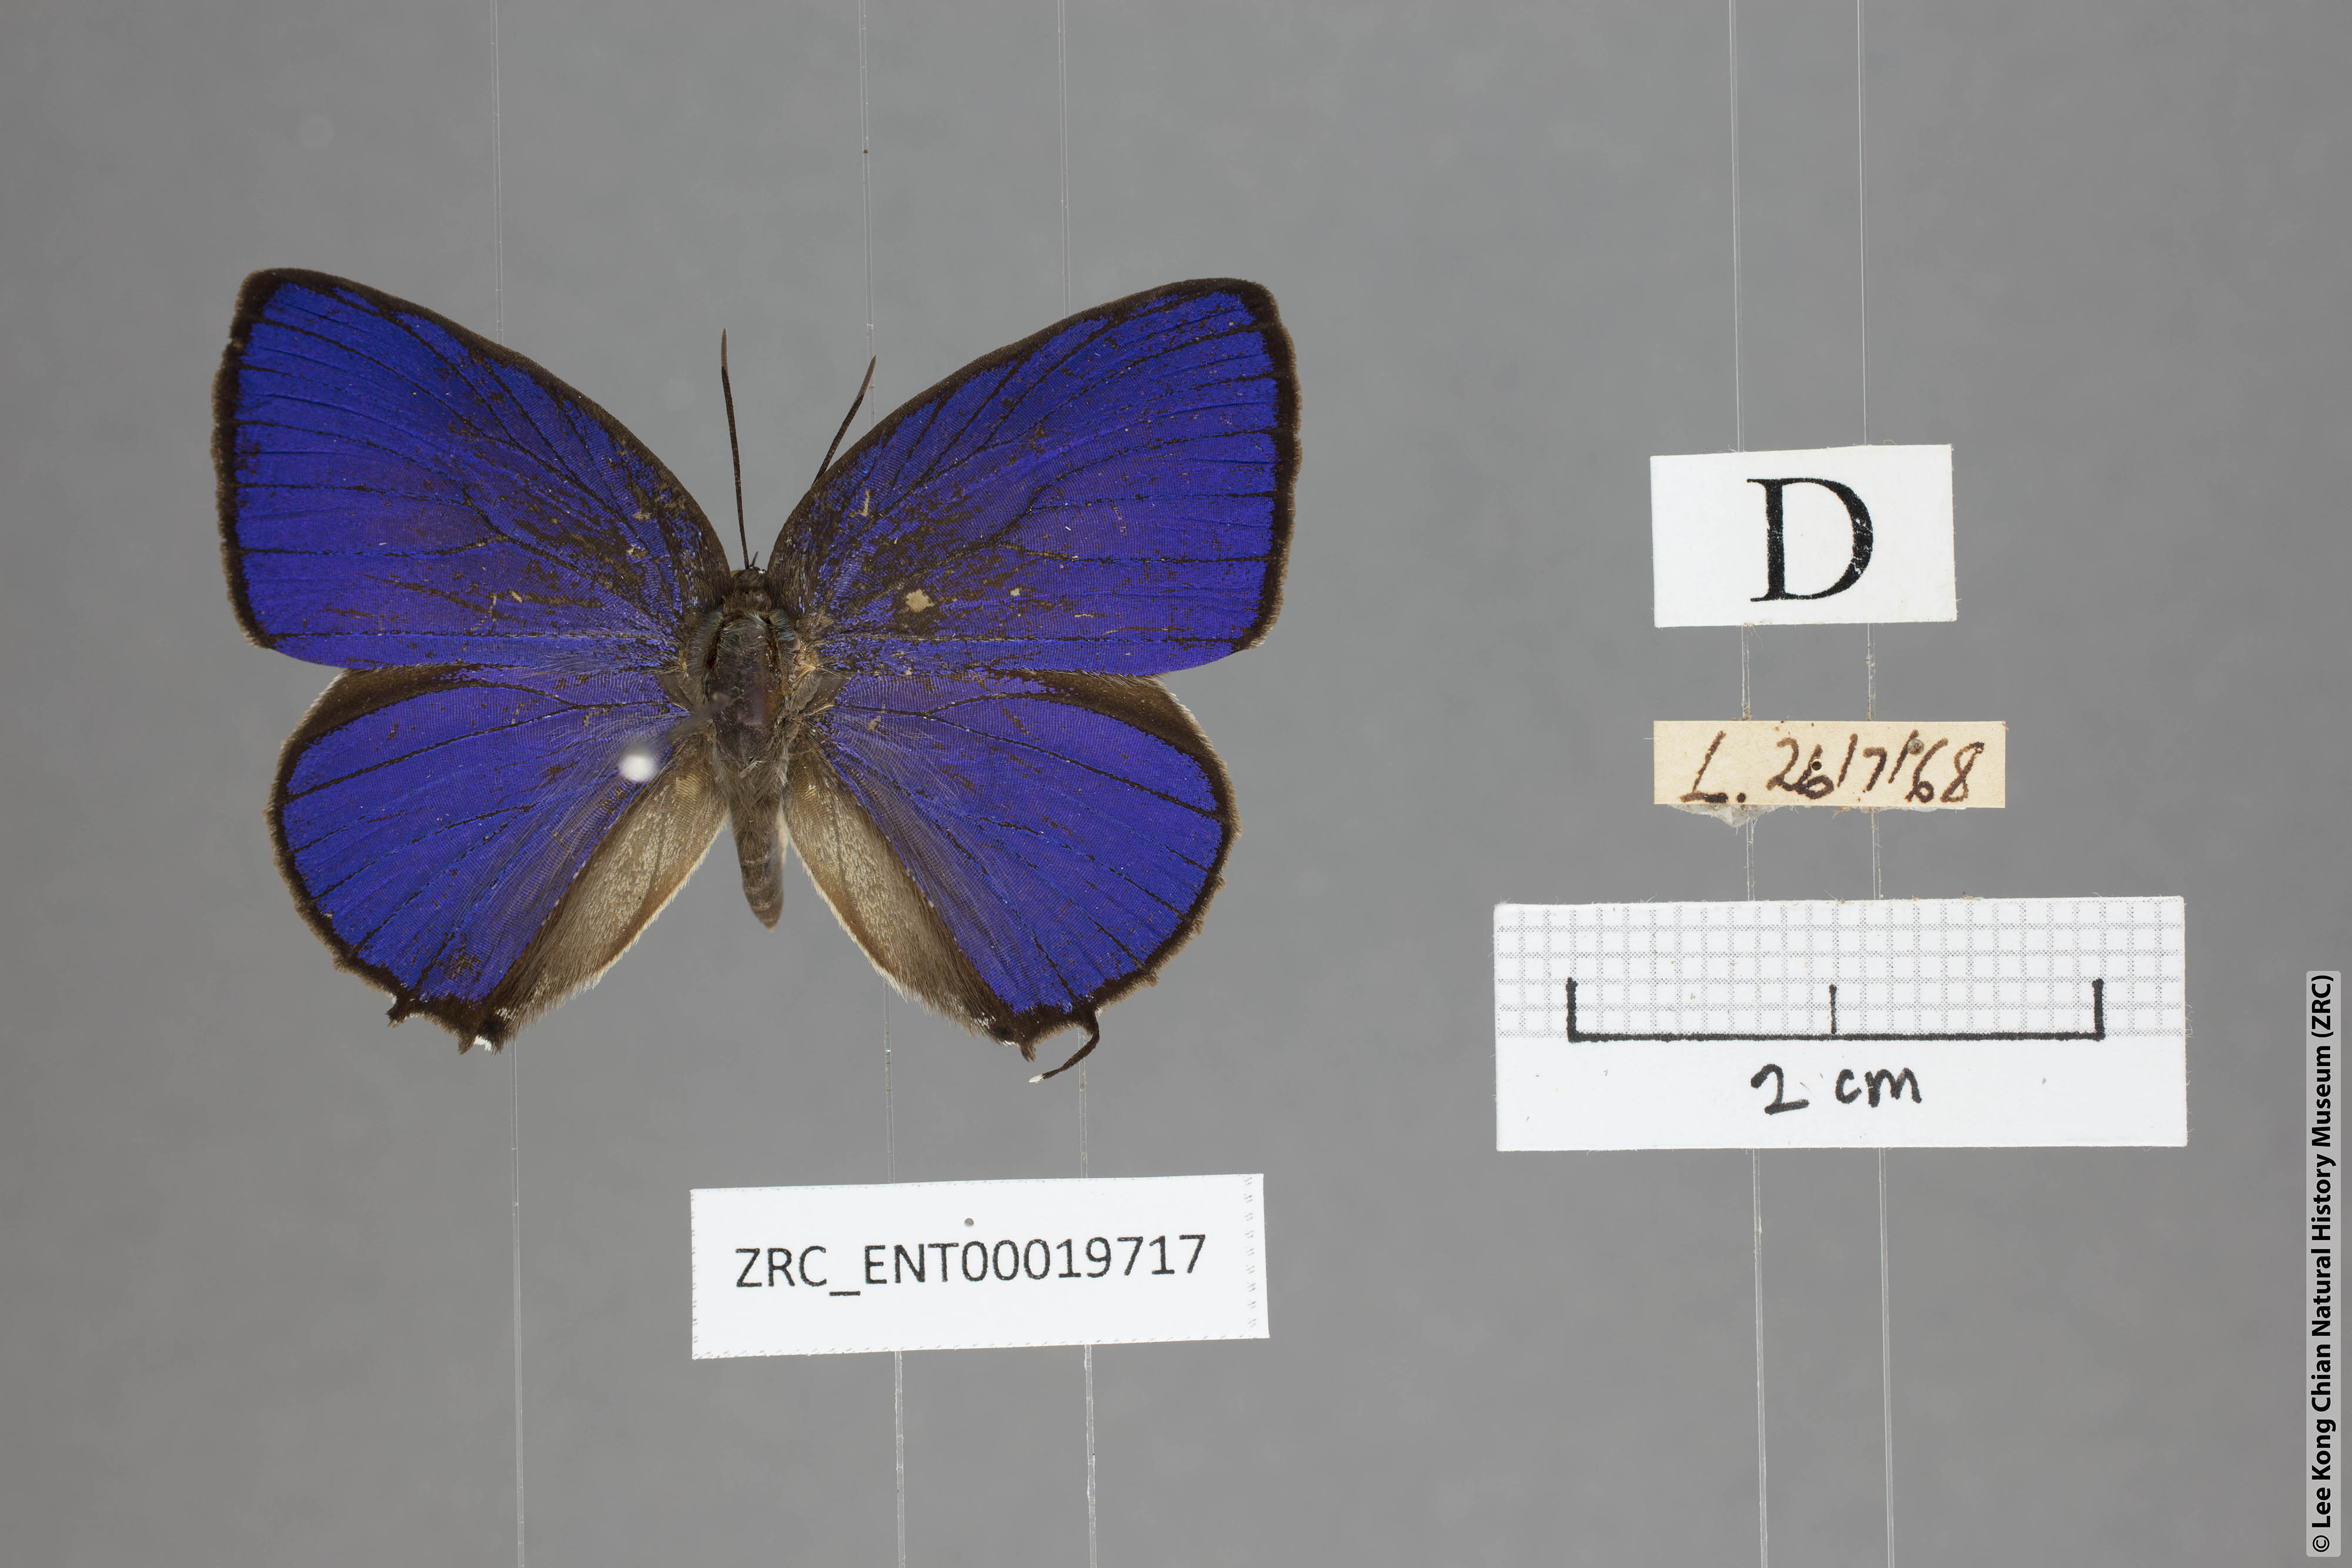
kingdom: Animalia
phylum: Arthropoda
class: Insecta
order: Lepidoptera
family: Lycaenidae
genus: Arhopala
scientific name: Arhopala myrzala
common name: Malayan oakblue
